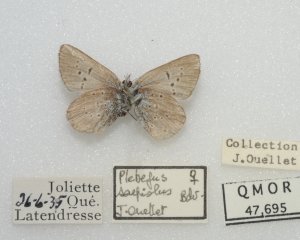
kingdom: Animalia
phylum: Arthropoda
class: Insecta
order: Lepidoptera
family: Lycaenidae
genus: Plebejus
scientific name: Plebejus saepiolus
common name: Greenish Blue
